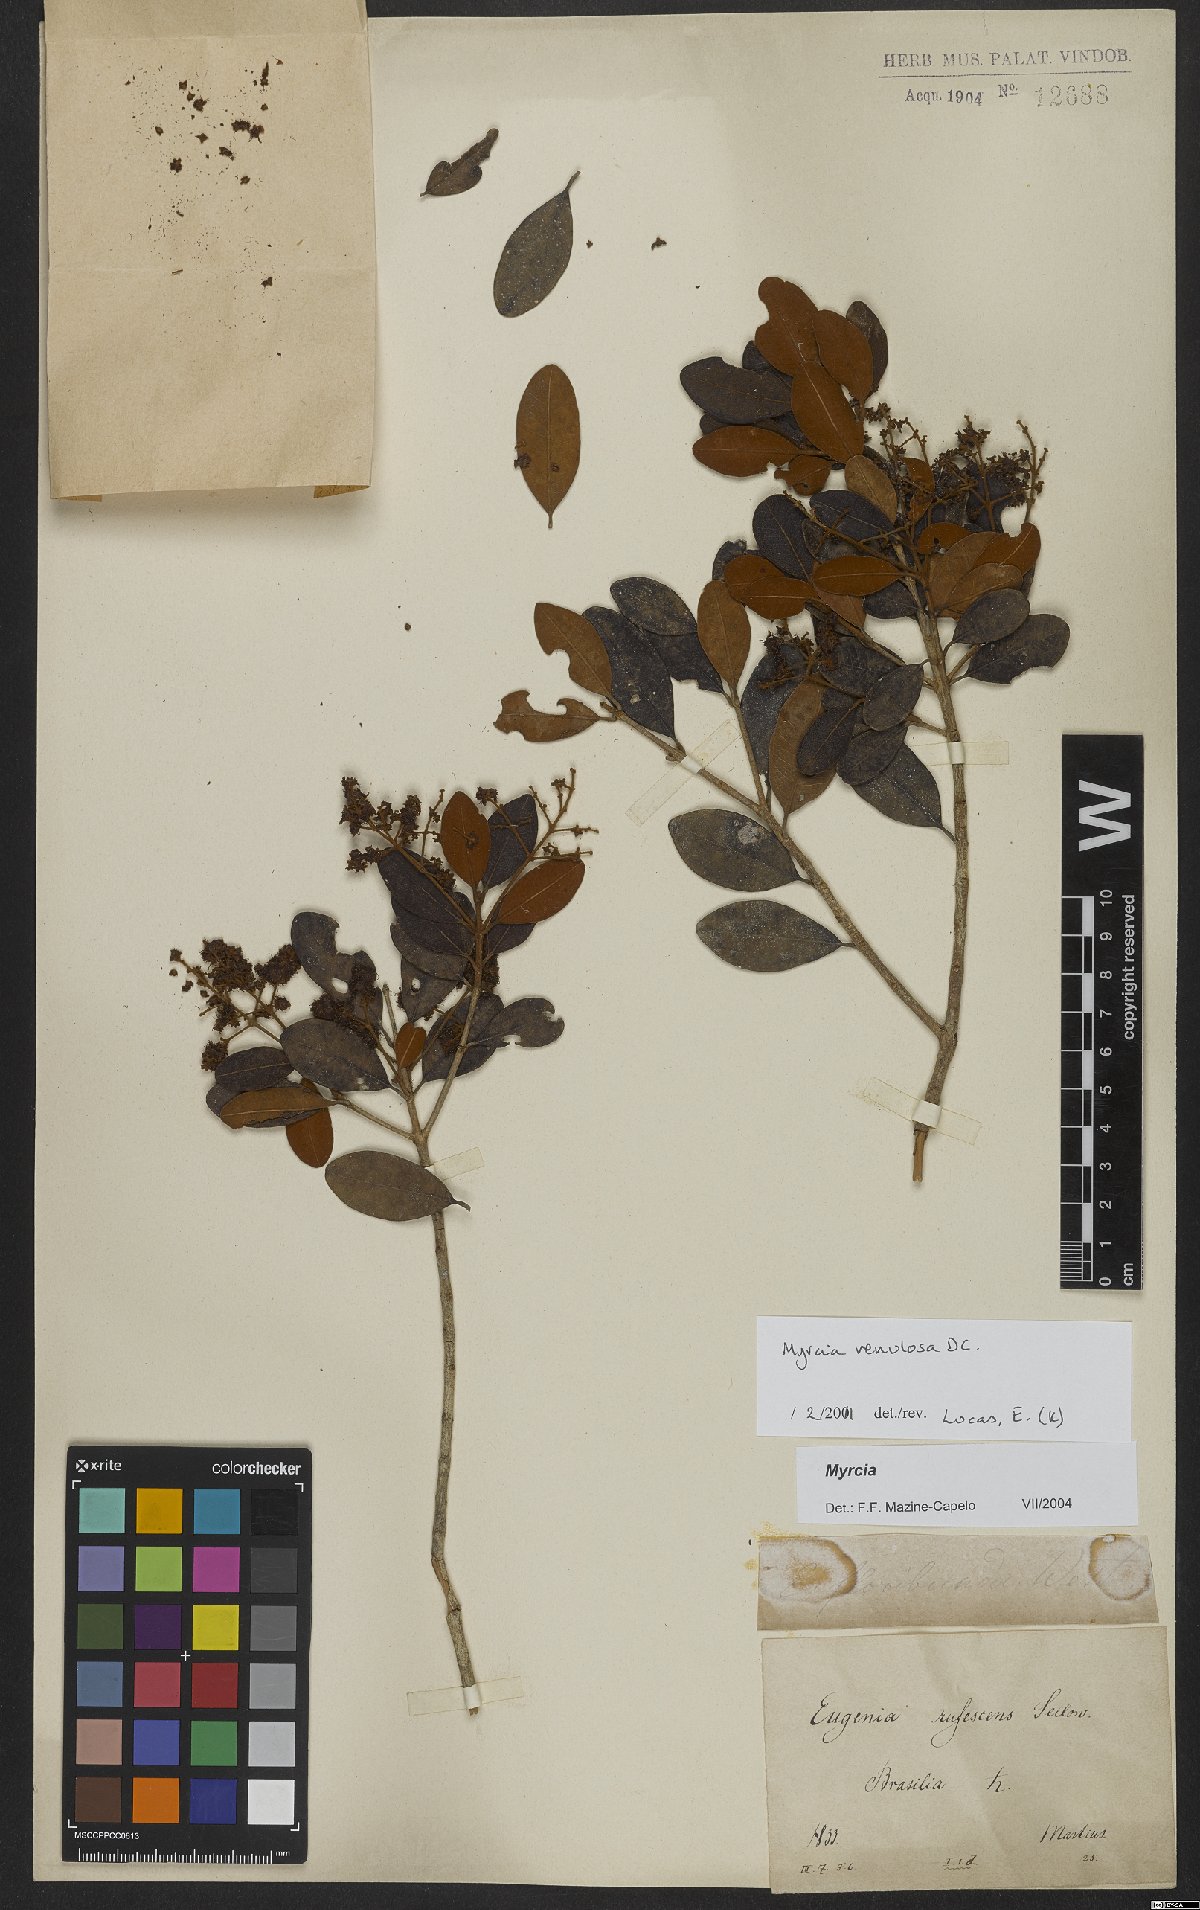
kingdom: Plantae
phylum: Tracheophyta
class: Magnoliopsida
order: Myrtales
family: Myrtaceae
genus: Myrcia
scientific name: Myrcia venulosa
